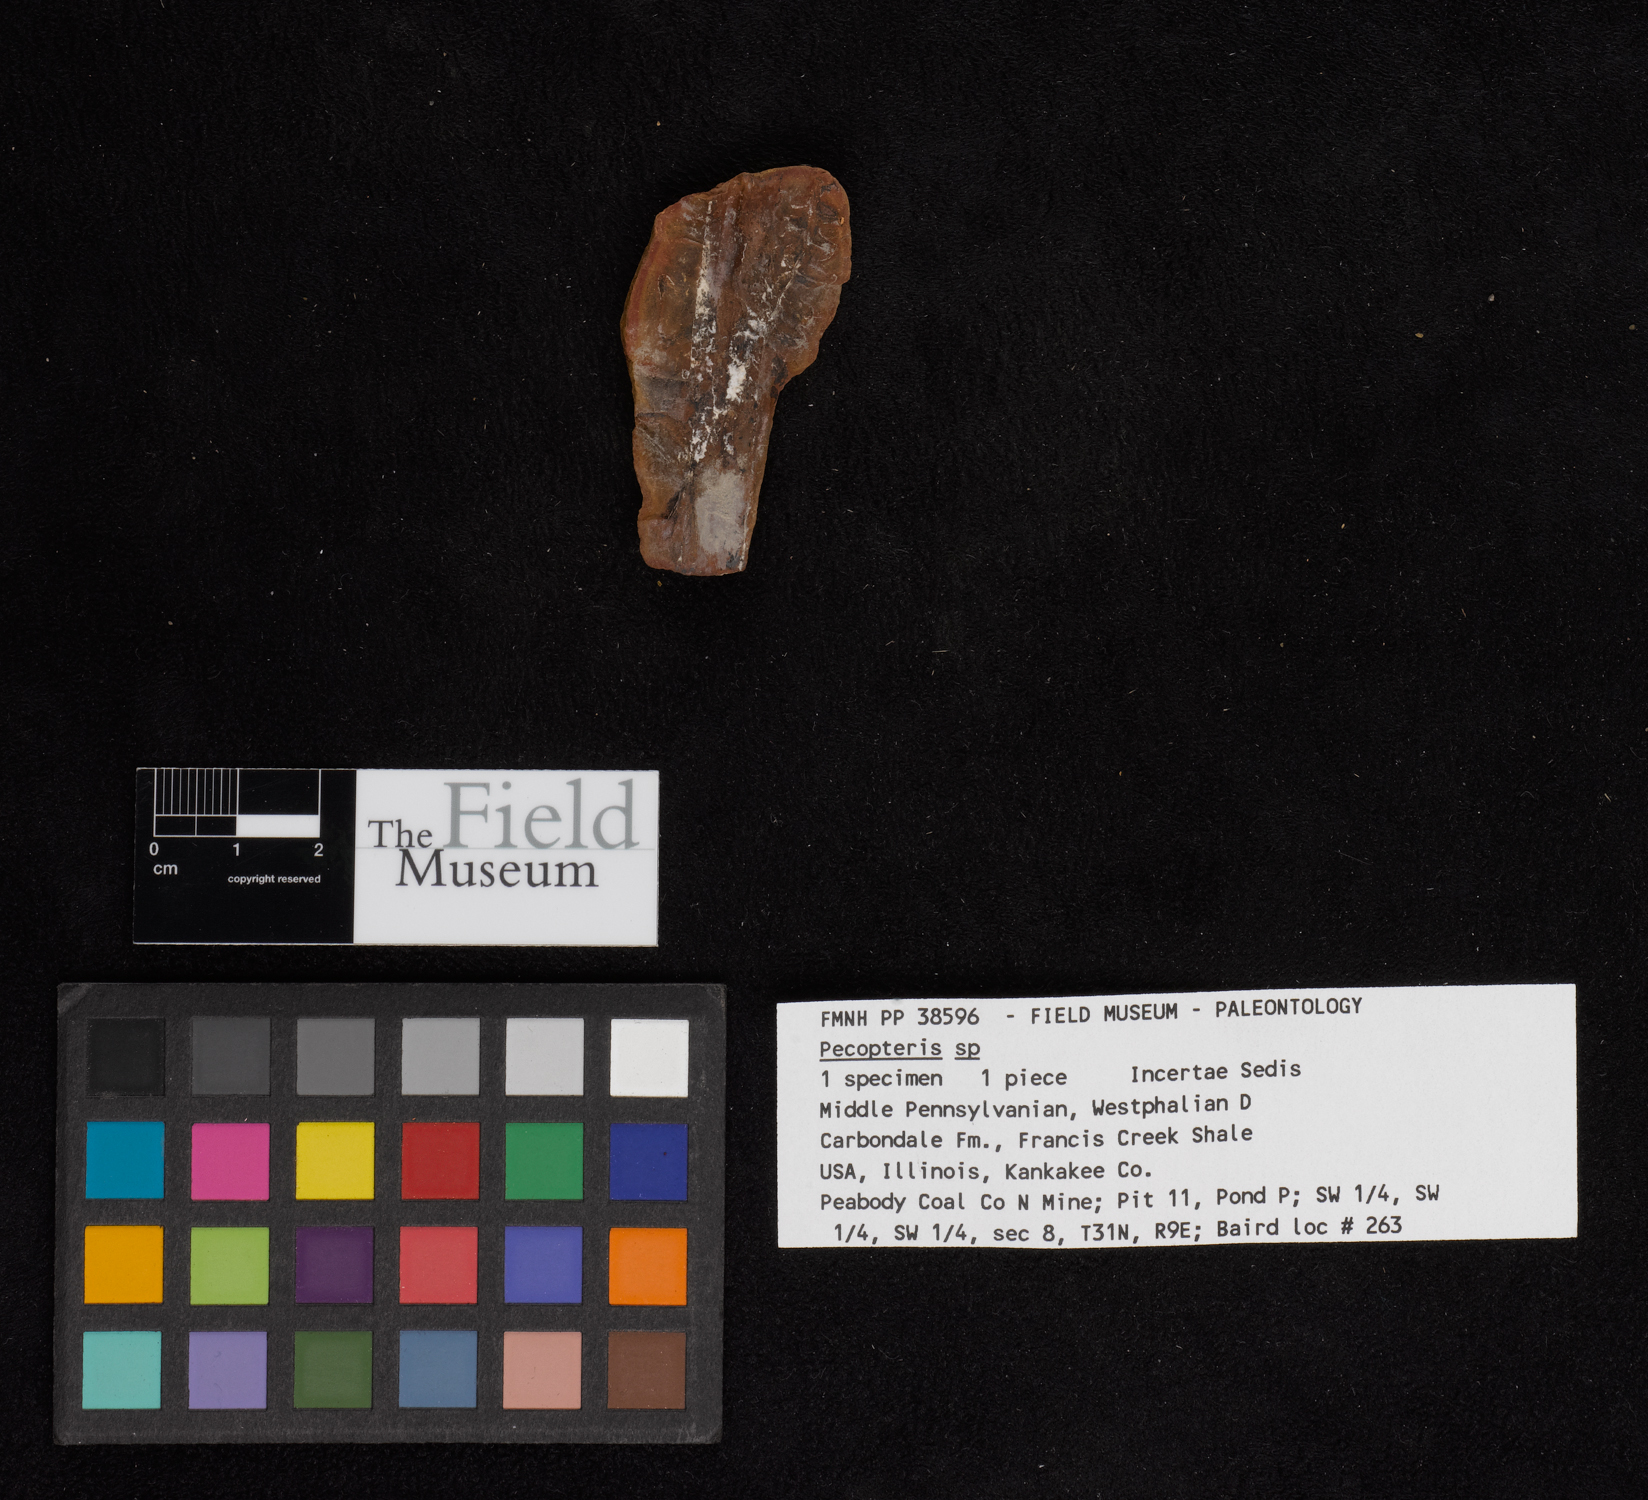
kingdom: Plantae
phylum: Tracheophyta
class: Polypodiopsida
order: Marattiales
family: Asterothecaceae
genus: Pecopteris
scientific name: Pecopteris
